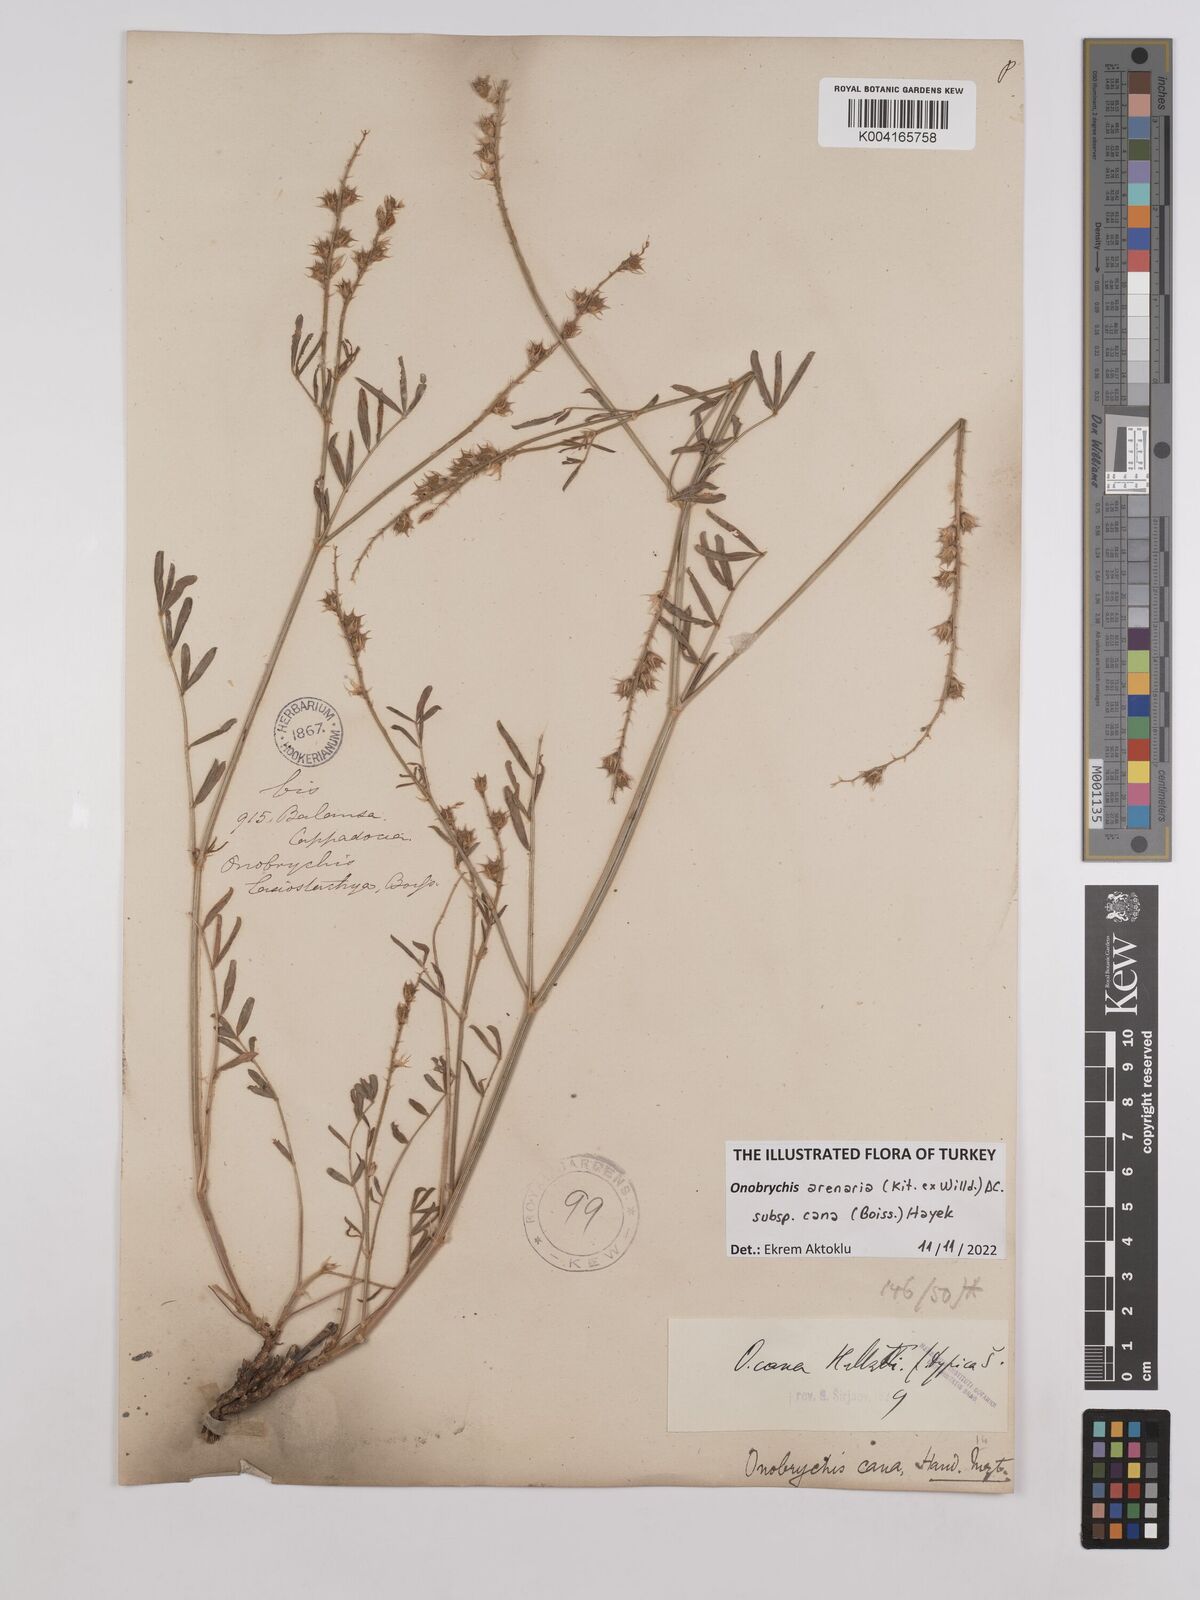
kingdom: Plantae
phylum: Tracheophyta
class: Magnoliopsida
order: Fabales
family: Fabaceae
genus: Onobrychis
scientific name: Onobrychis arenaria
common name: Sand esparcet
